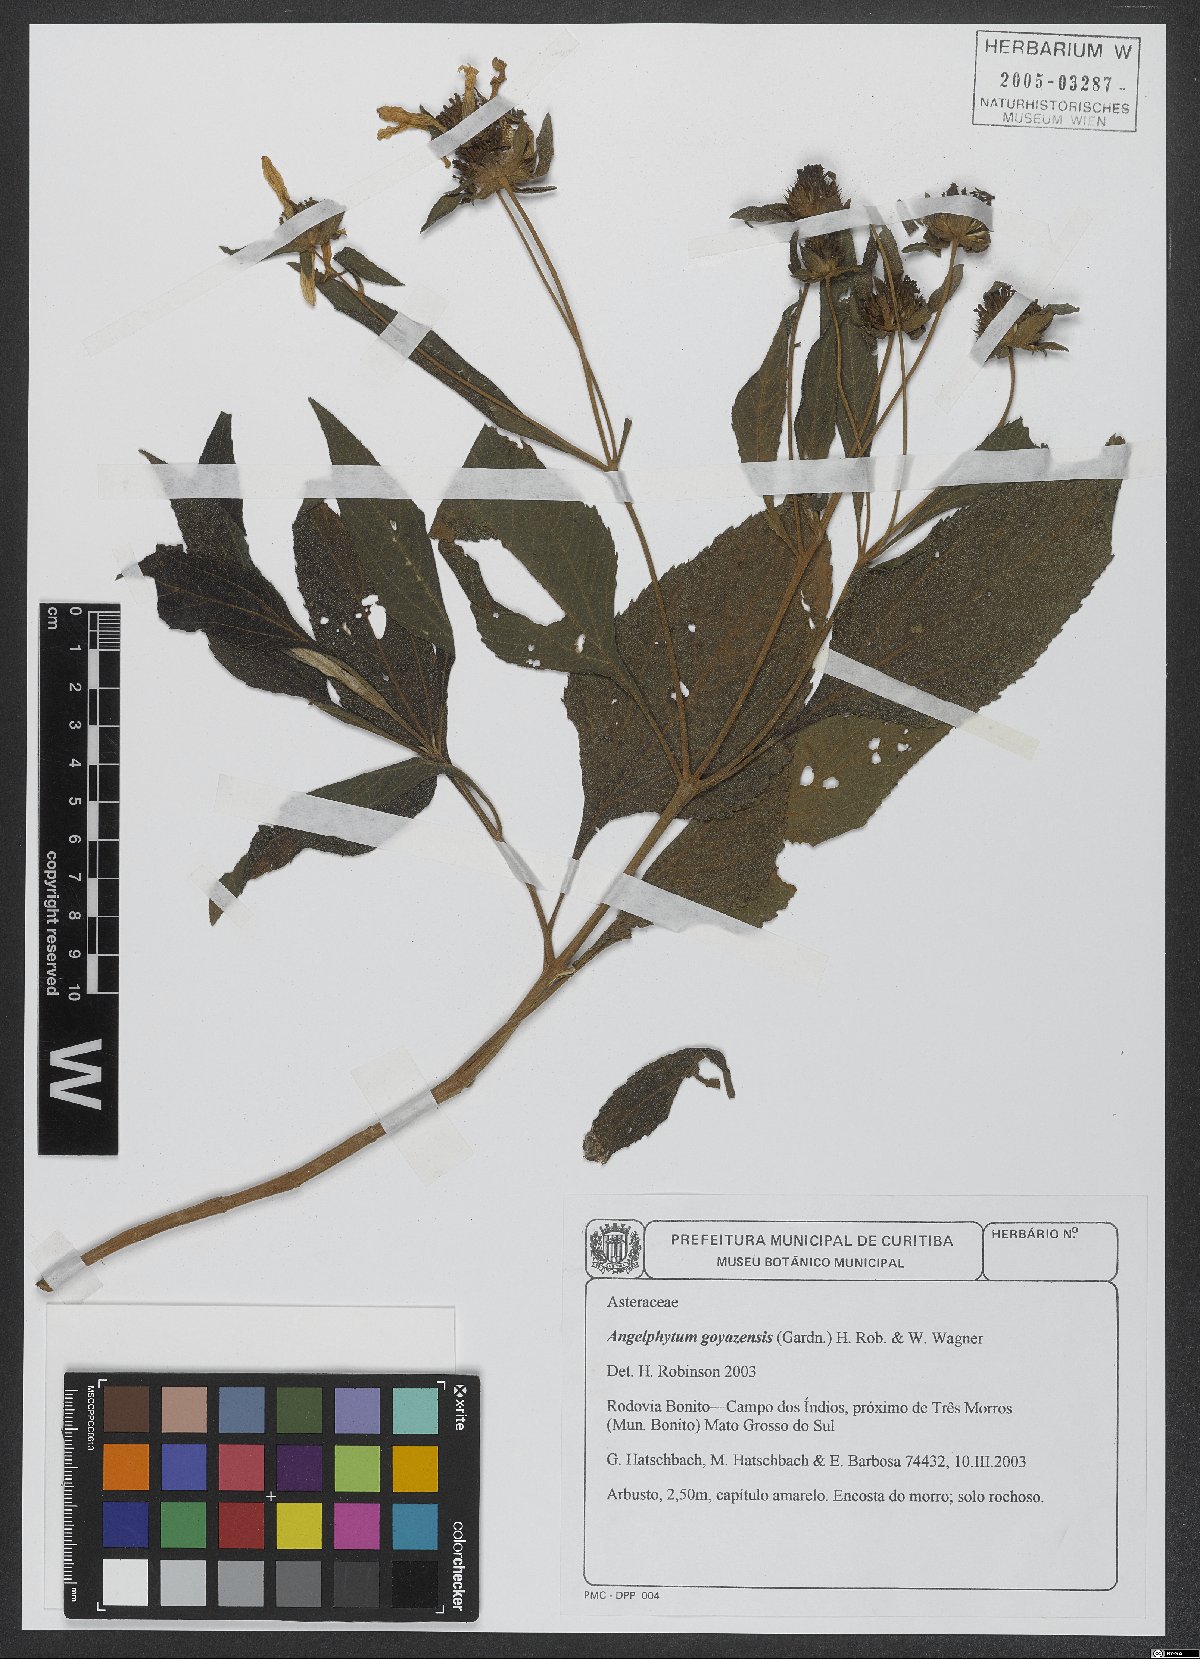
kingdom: Plantae
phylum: Tracheophyta
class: Magnoliopsida
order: Asterales
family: Asteraceae
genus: Dimerostemma
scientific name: Dimerostemma goyazense
